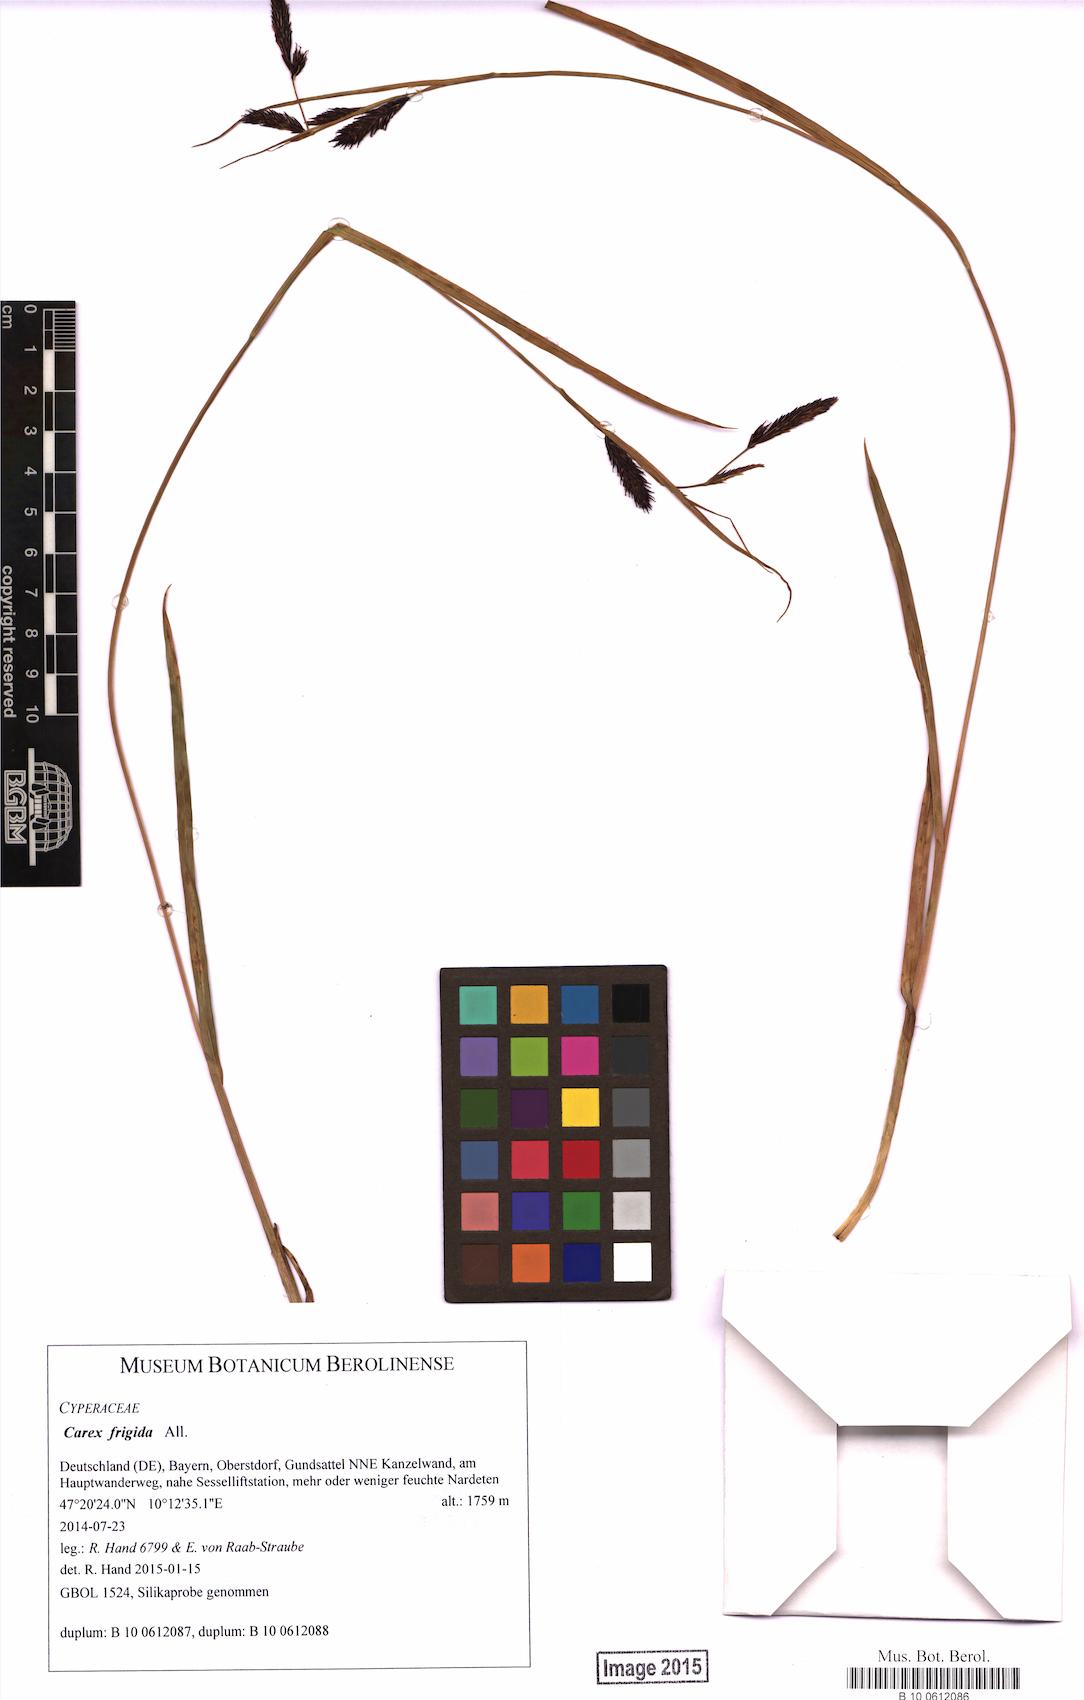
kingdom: Plantae
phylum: Tracheophyta
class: Liliopsida
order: Poales
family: Cyperaceae
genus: Carex
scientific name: Carex frigida
